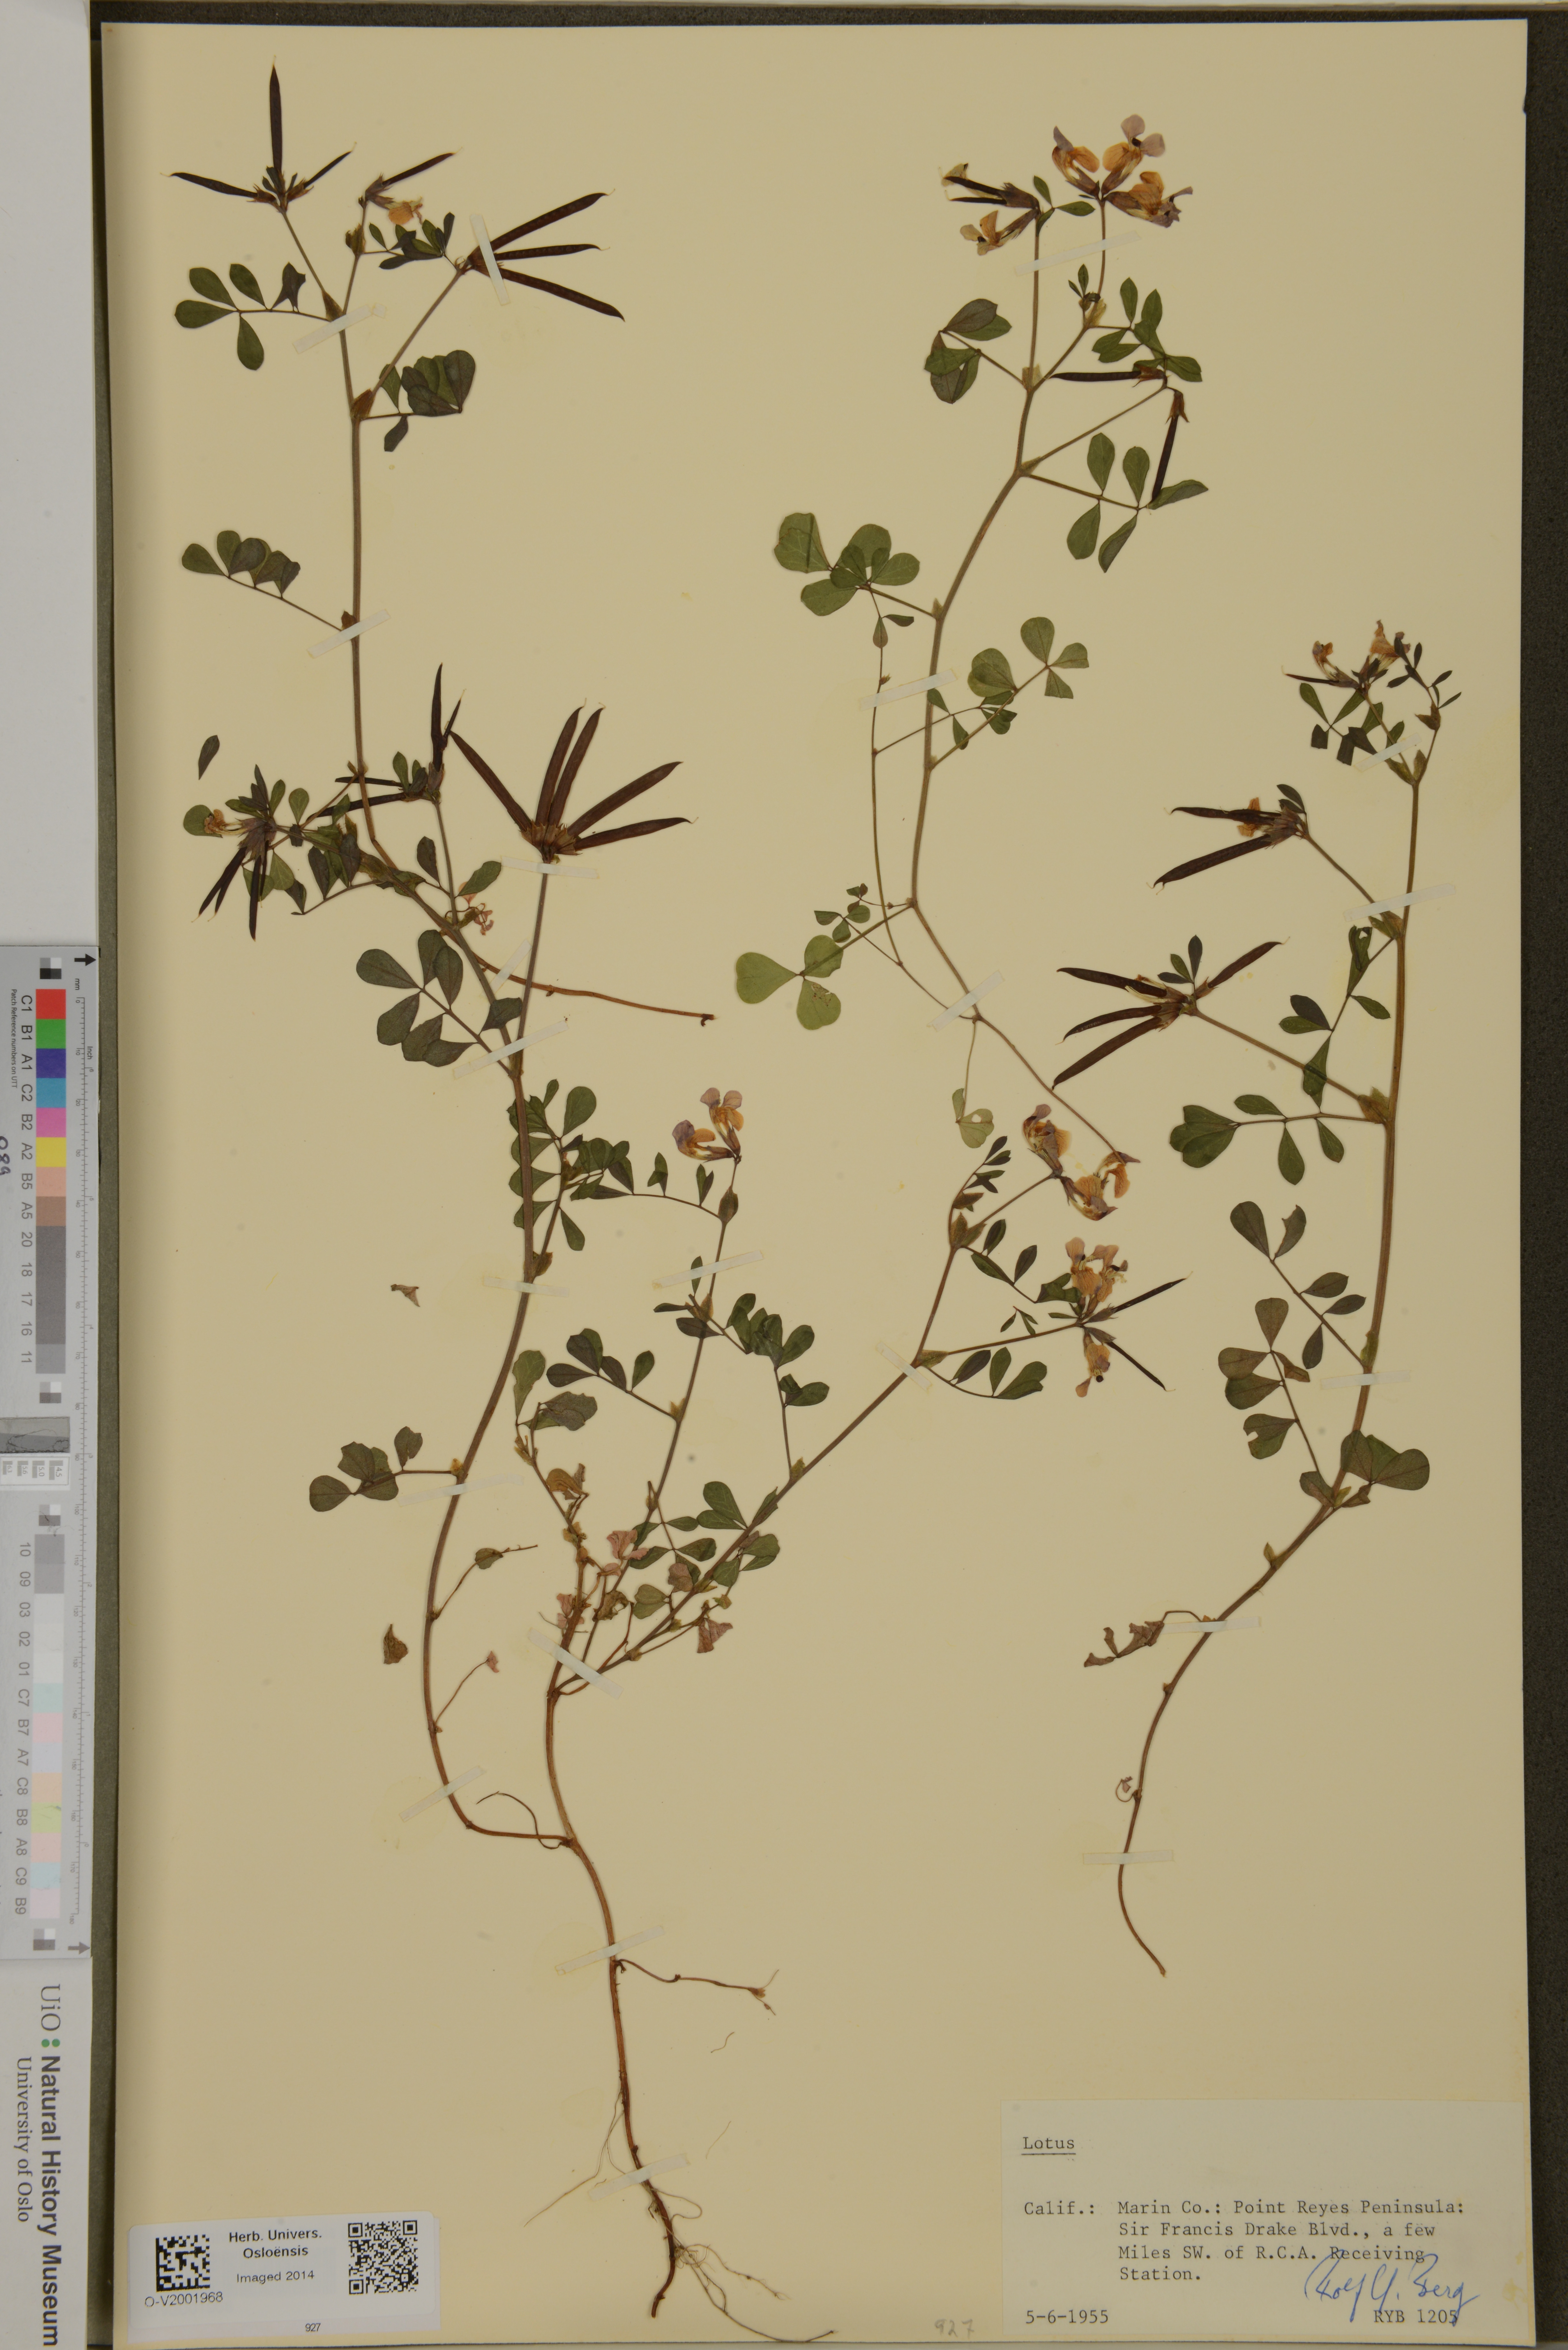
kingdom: Plantae
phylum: Tracheophyta
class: Magnoliopsida
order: Fabales
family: Fabaceae
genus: Lotus
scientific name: Lotus
